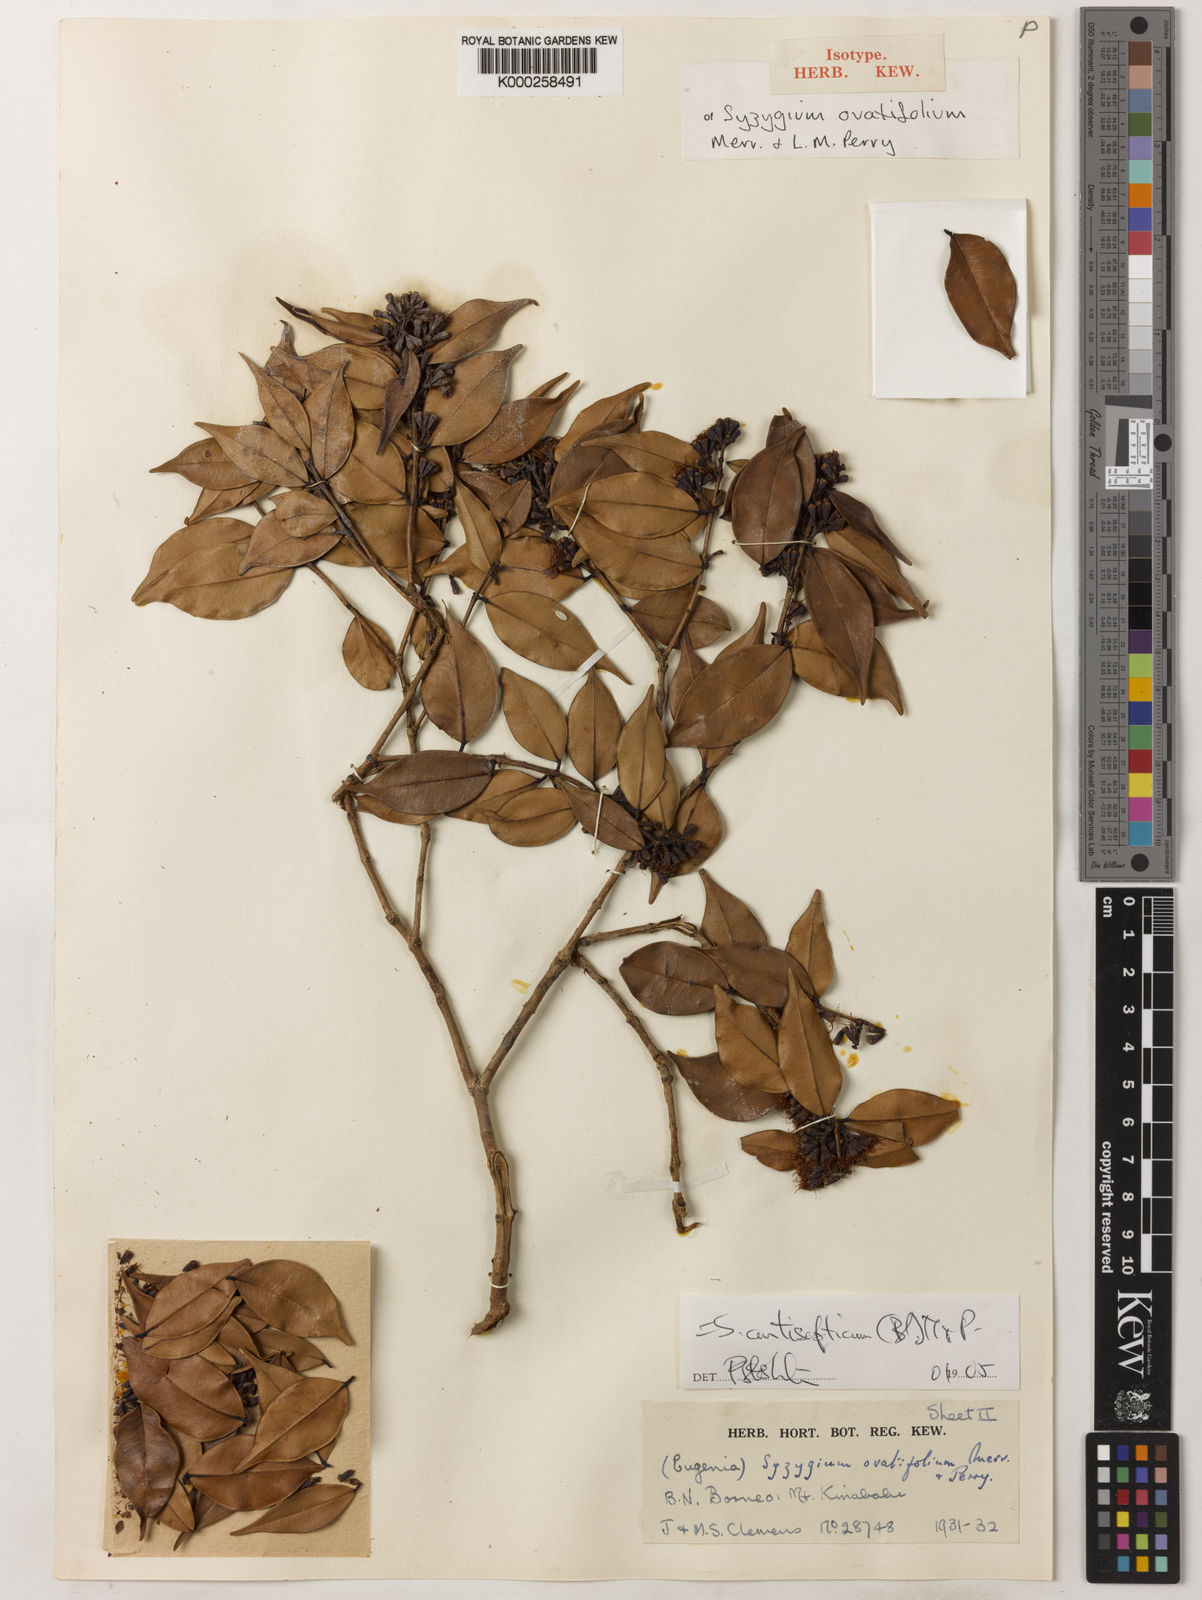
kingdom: Plantae
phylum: Tracheophyta
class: Magnoliopsida
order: Myrtales
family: Myrtaceae
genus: Syzygium
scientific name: Syzygium antisepticum
